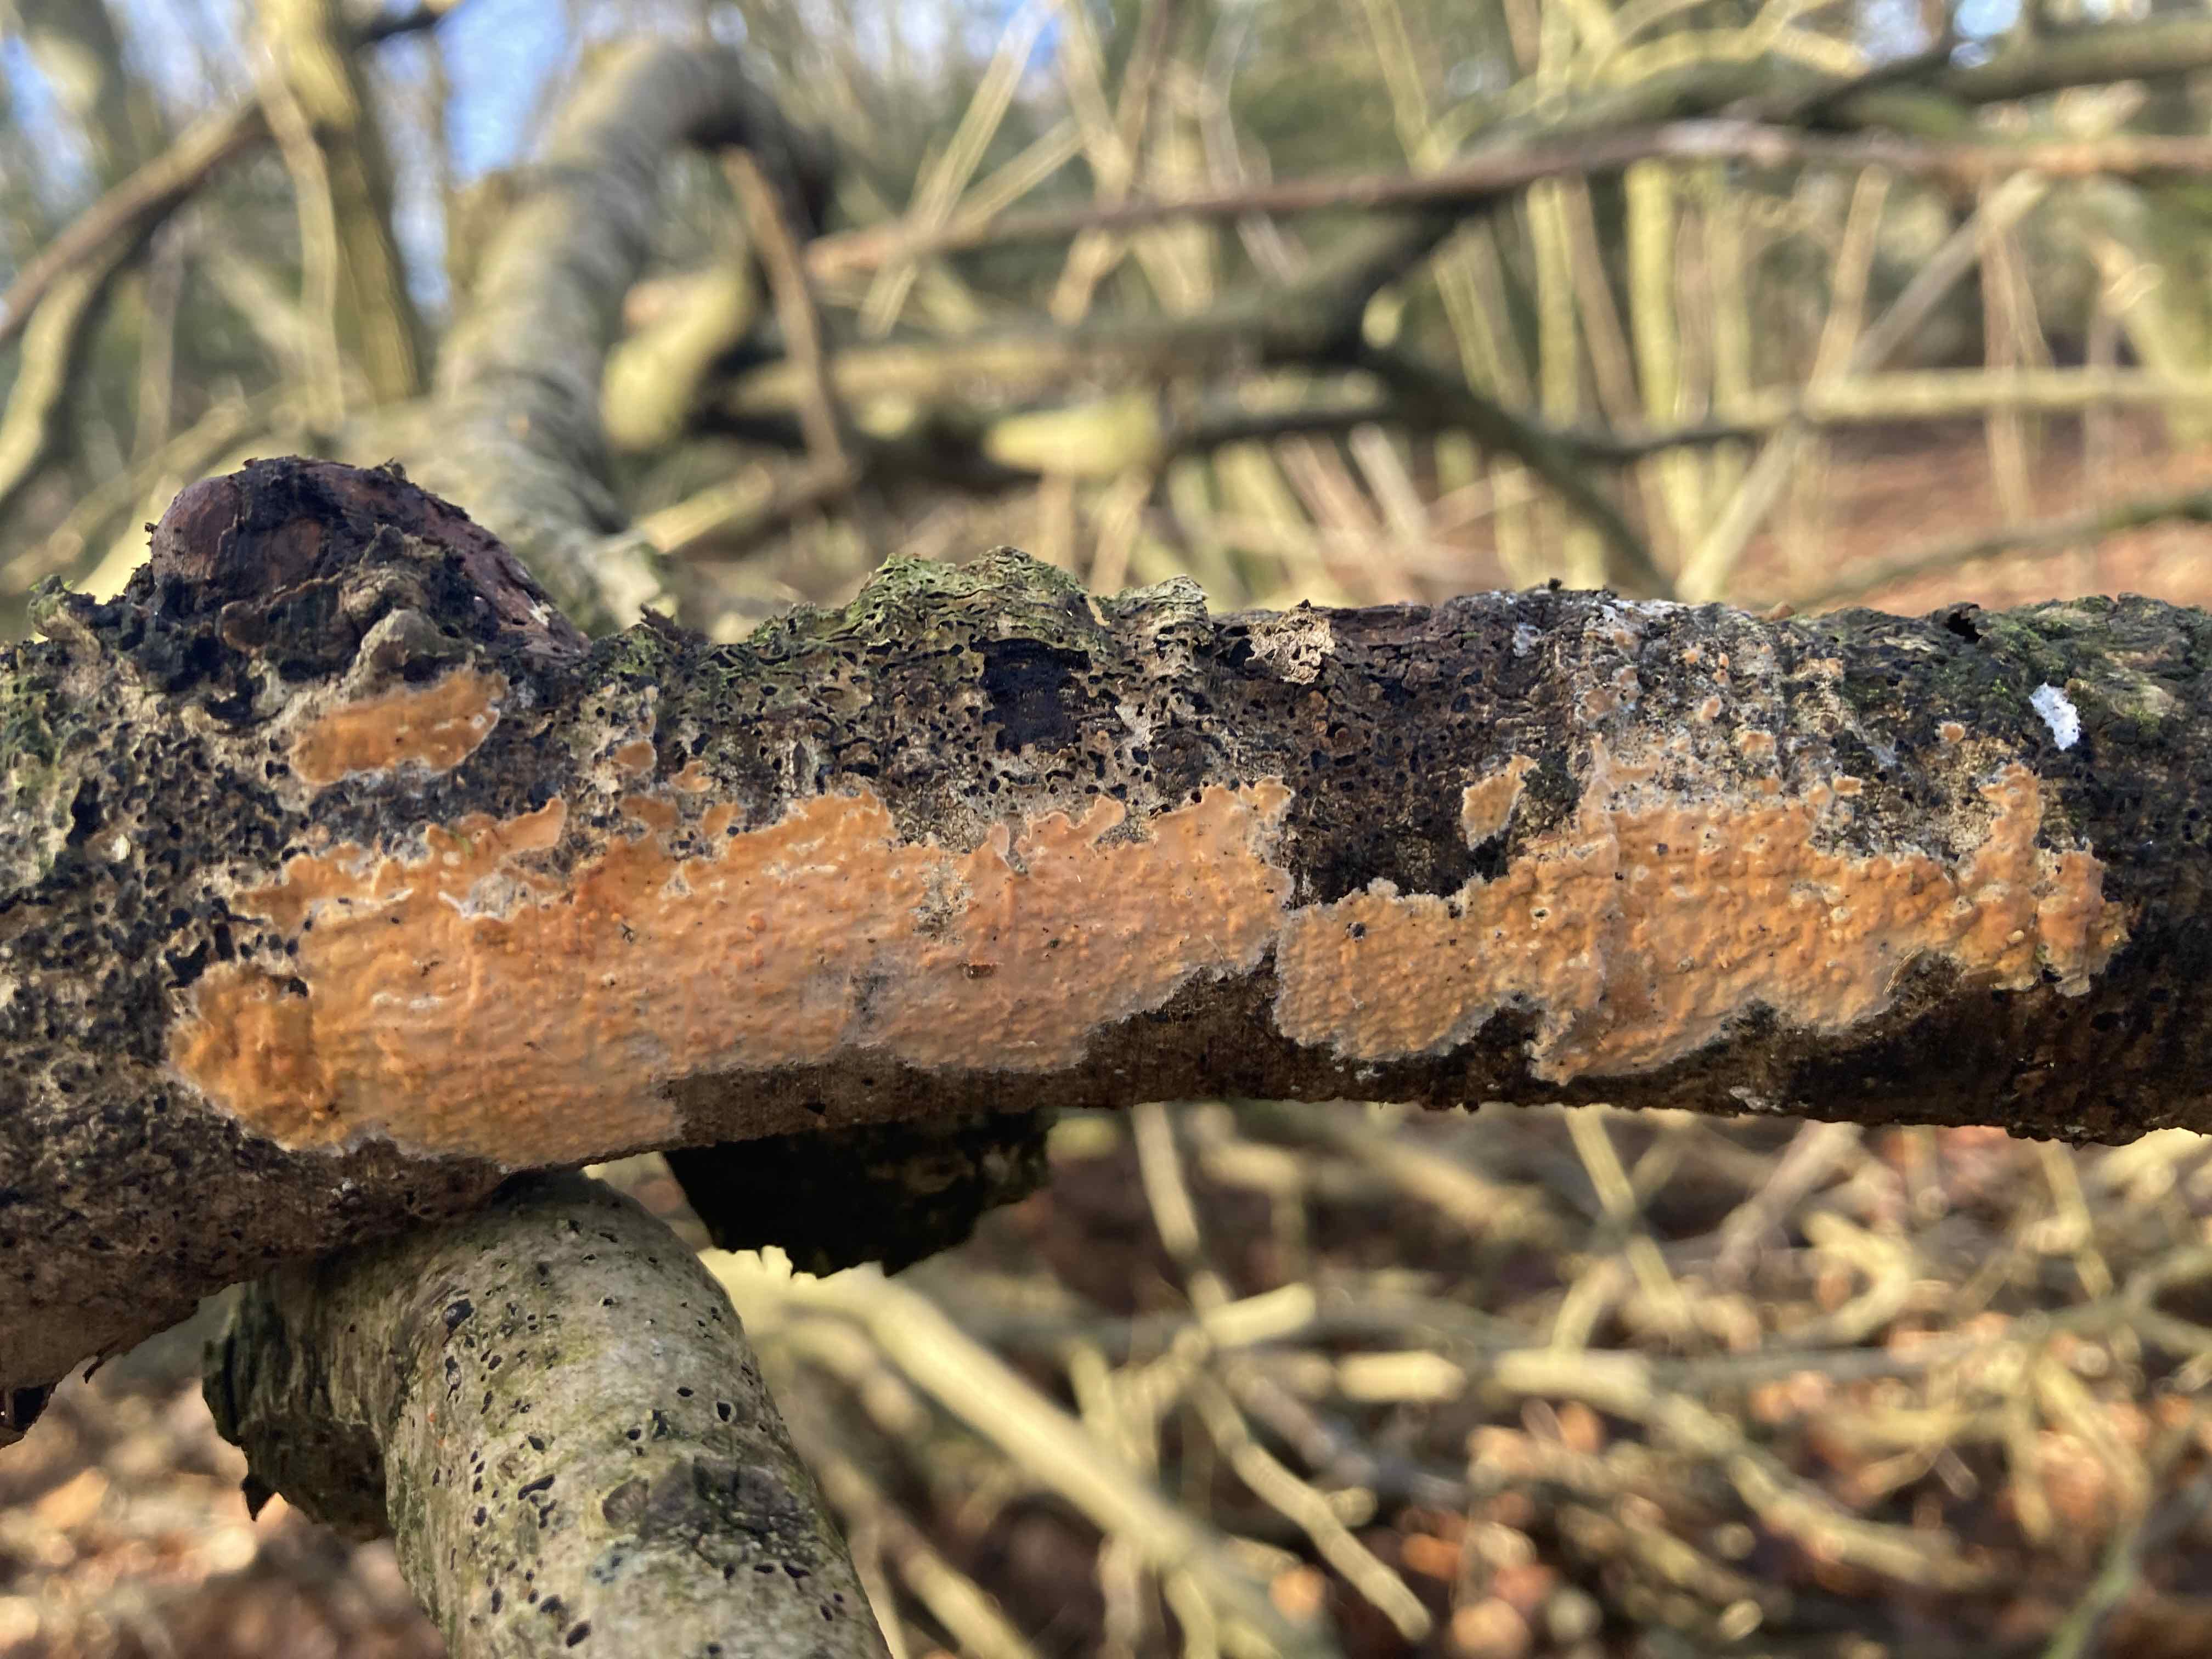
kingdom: Fungi
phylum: Basidiomycota
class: Agaricomycetes
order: Russulales
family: Peniophoraceae
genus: Peniophora
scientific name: Peniophora incarnata
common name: laksefarvet voksskind
